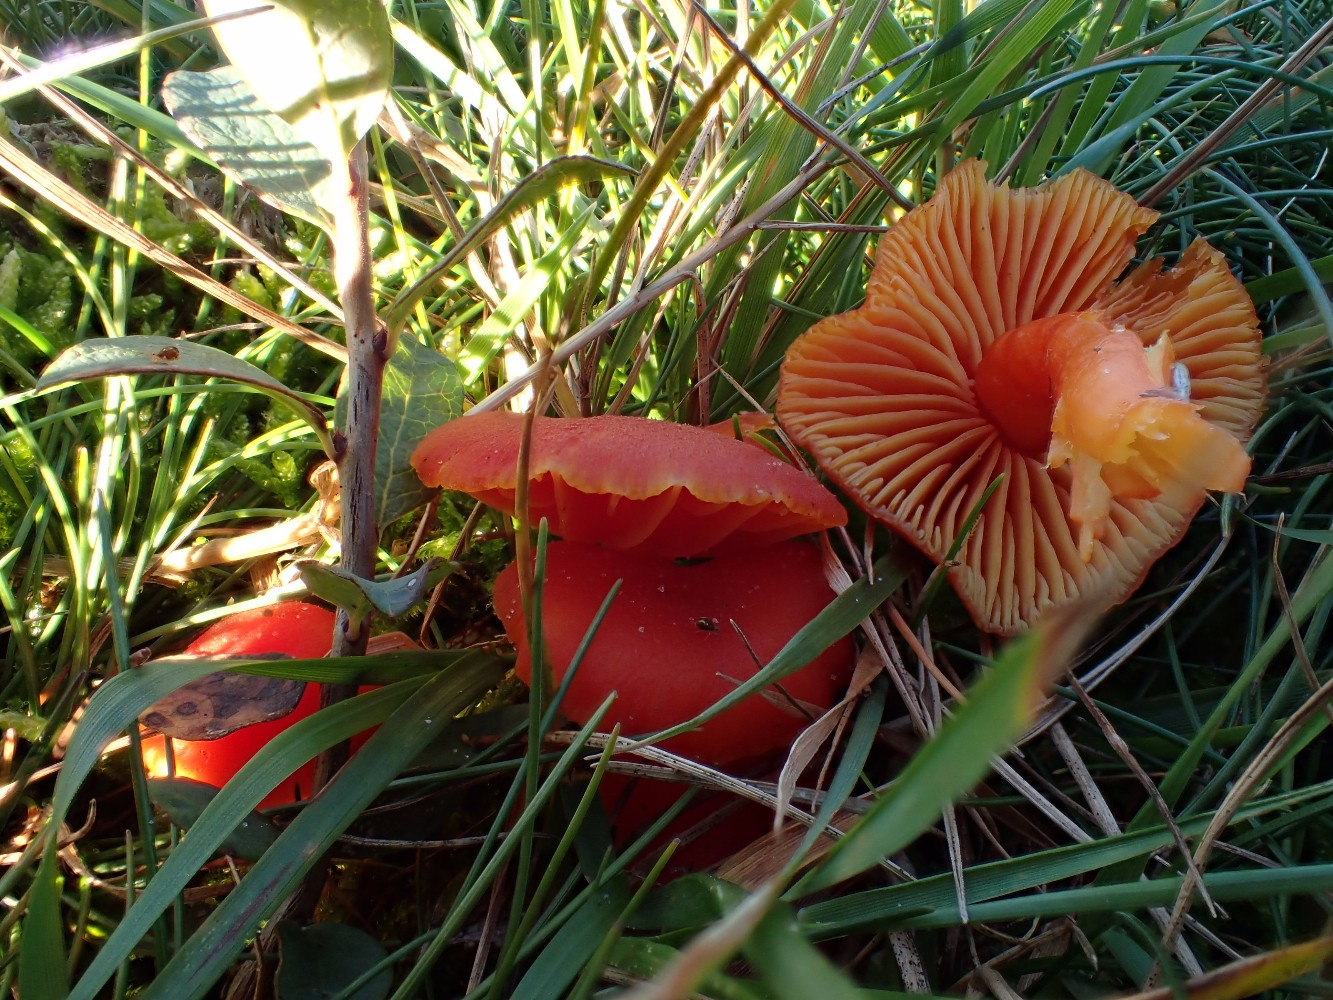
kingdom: Fungi
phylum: Basidiomycota
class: Agaricomycetes
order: Agaricales
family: Hygrophoraceae
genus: Hygrocybe
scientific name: Hygrocybe miniata
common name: mønje-vokshat
